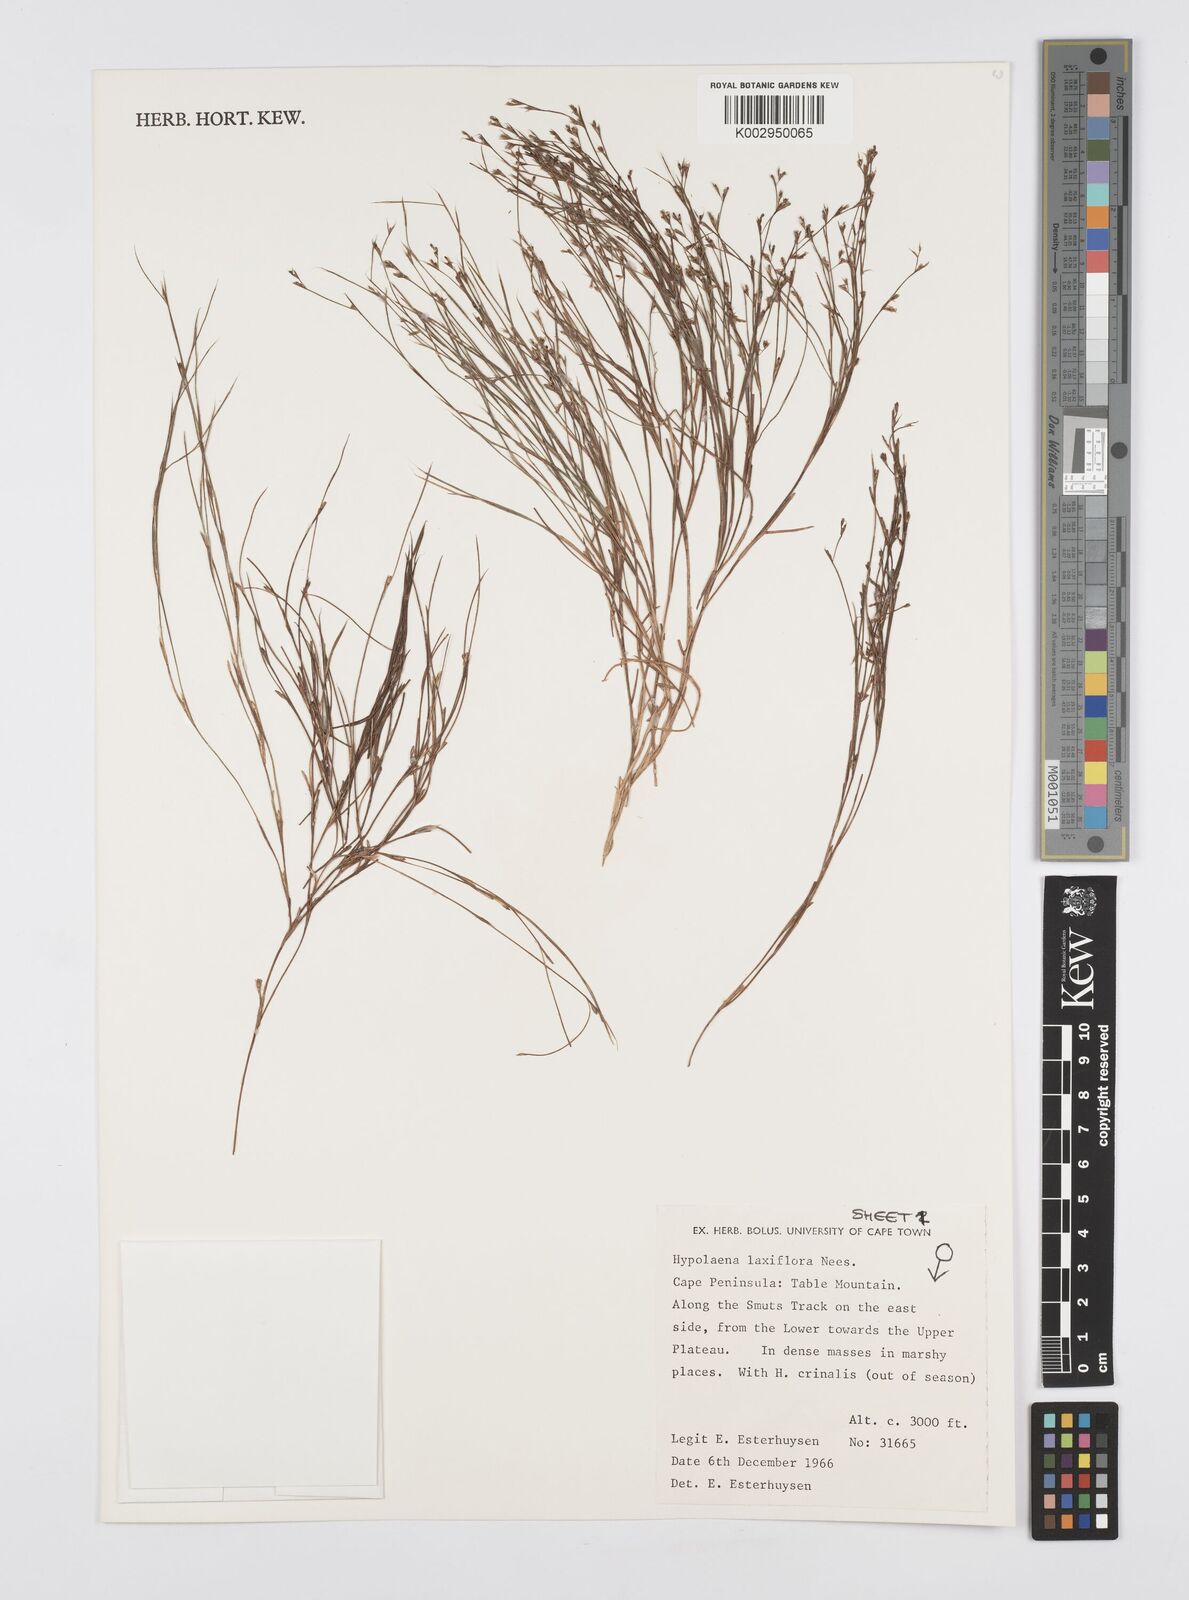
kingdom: Plantae
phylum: Tracheophyta
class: Liliopsida
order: Poales
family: Restionaceae
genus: Anthochortus
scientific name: Anthochortus laxiflorus
